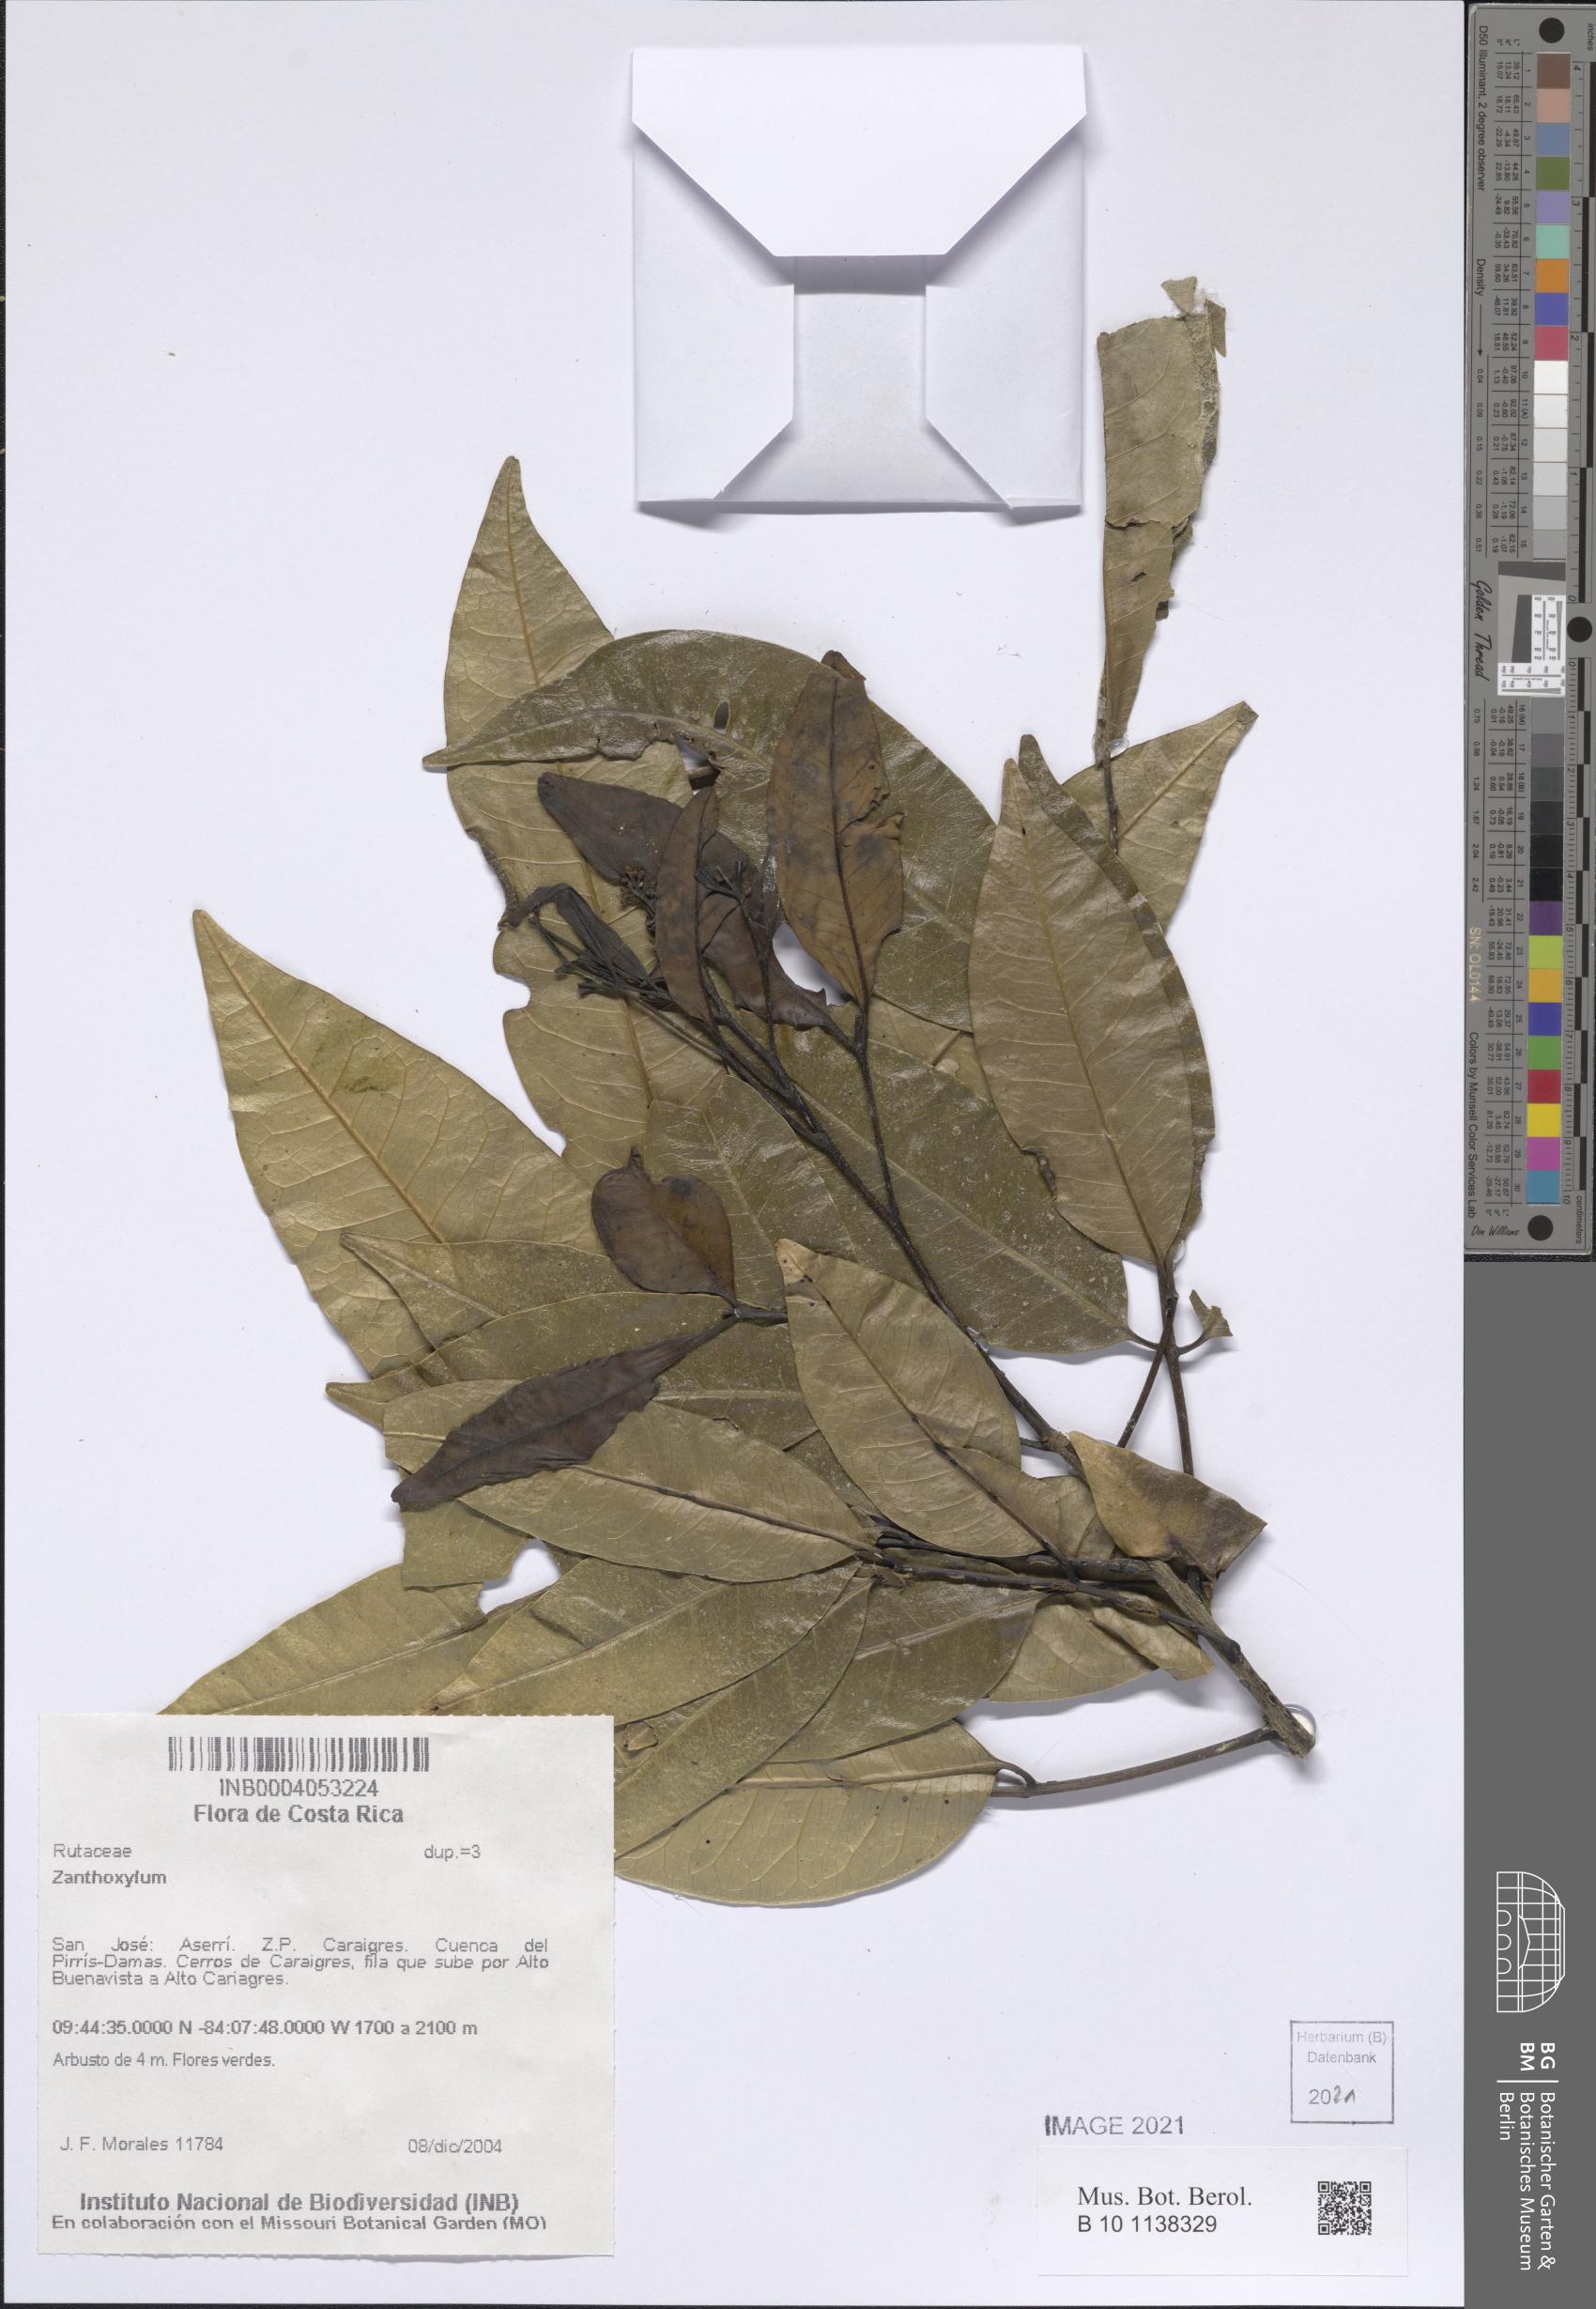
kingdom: Plantae
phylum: Tracheophyta
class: Magnoliopsida
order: Sapindales
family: Rutaceae
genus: Zanthoxylum
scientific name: Zanthoxylum
